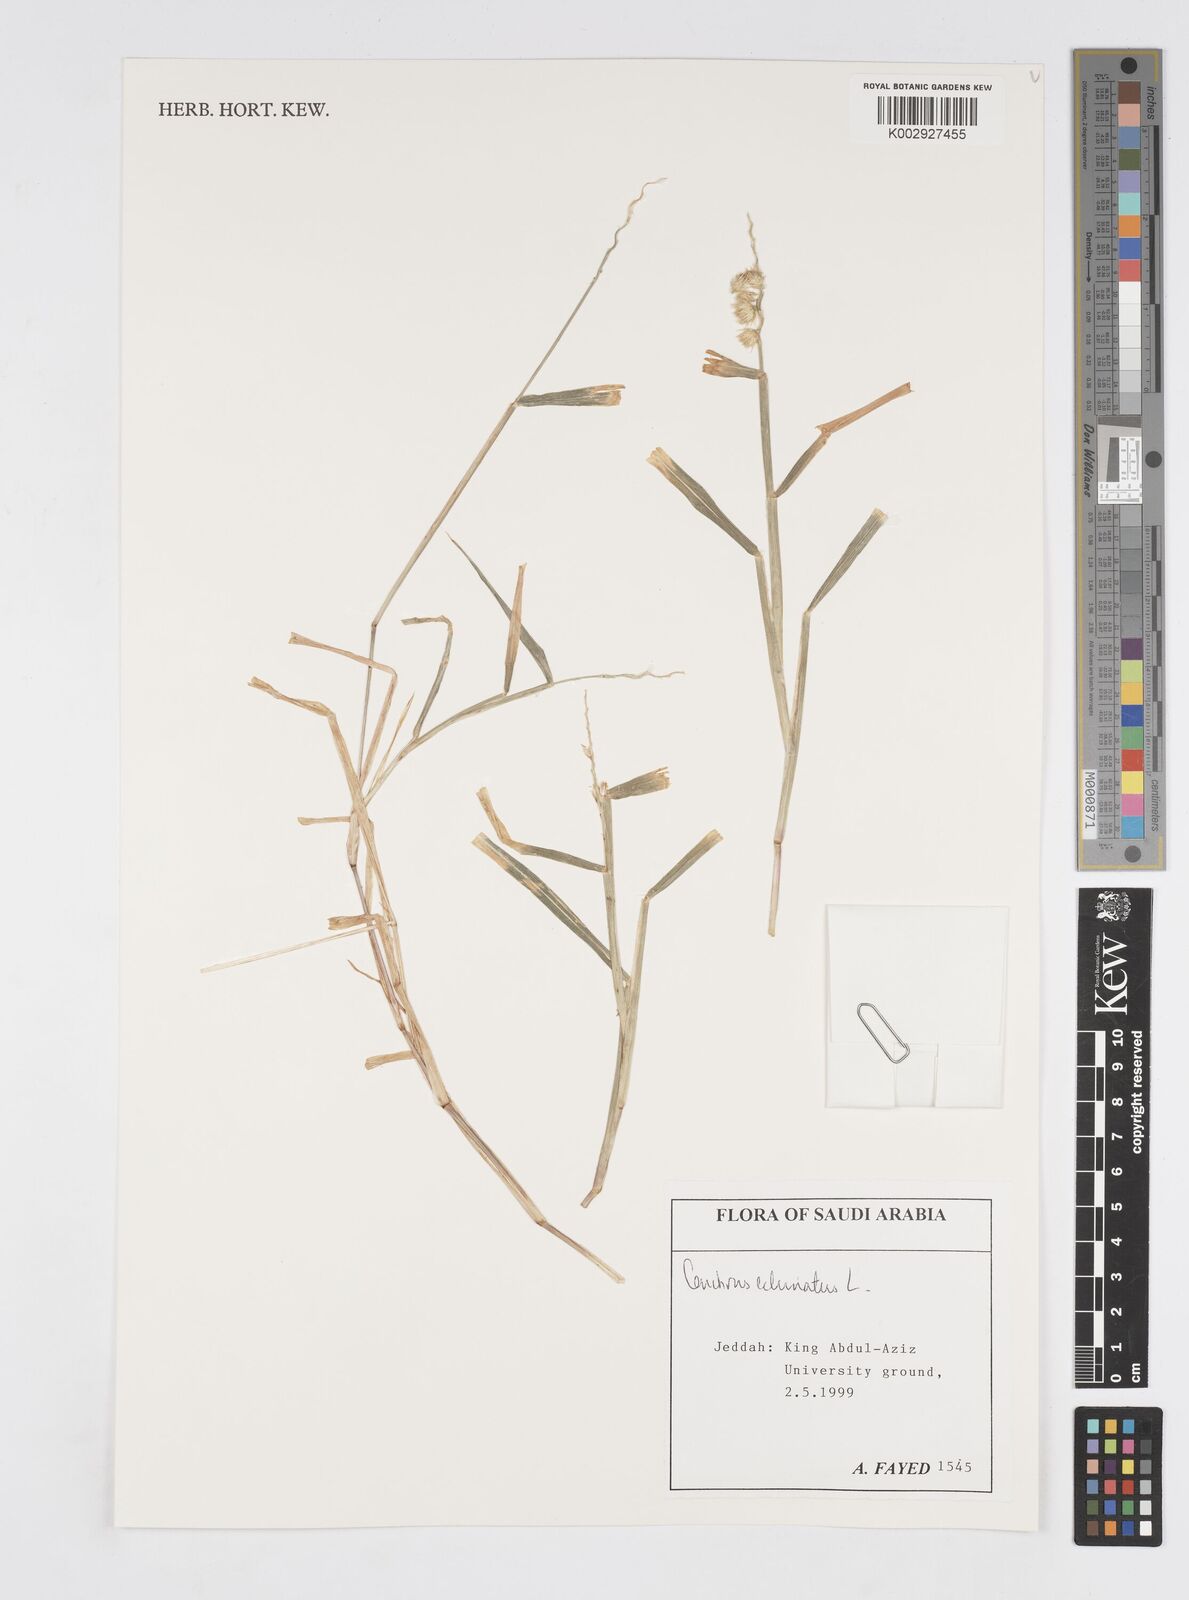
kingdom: Plantae
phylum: Tracheophyta
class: Liliopsida
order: Poales
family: Poaceae
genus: Cenchrus
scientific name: Cenchrus echinatus
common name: Southern sandbur
